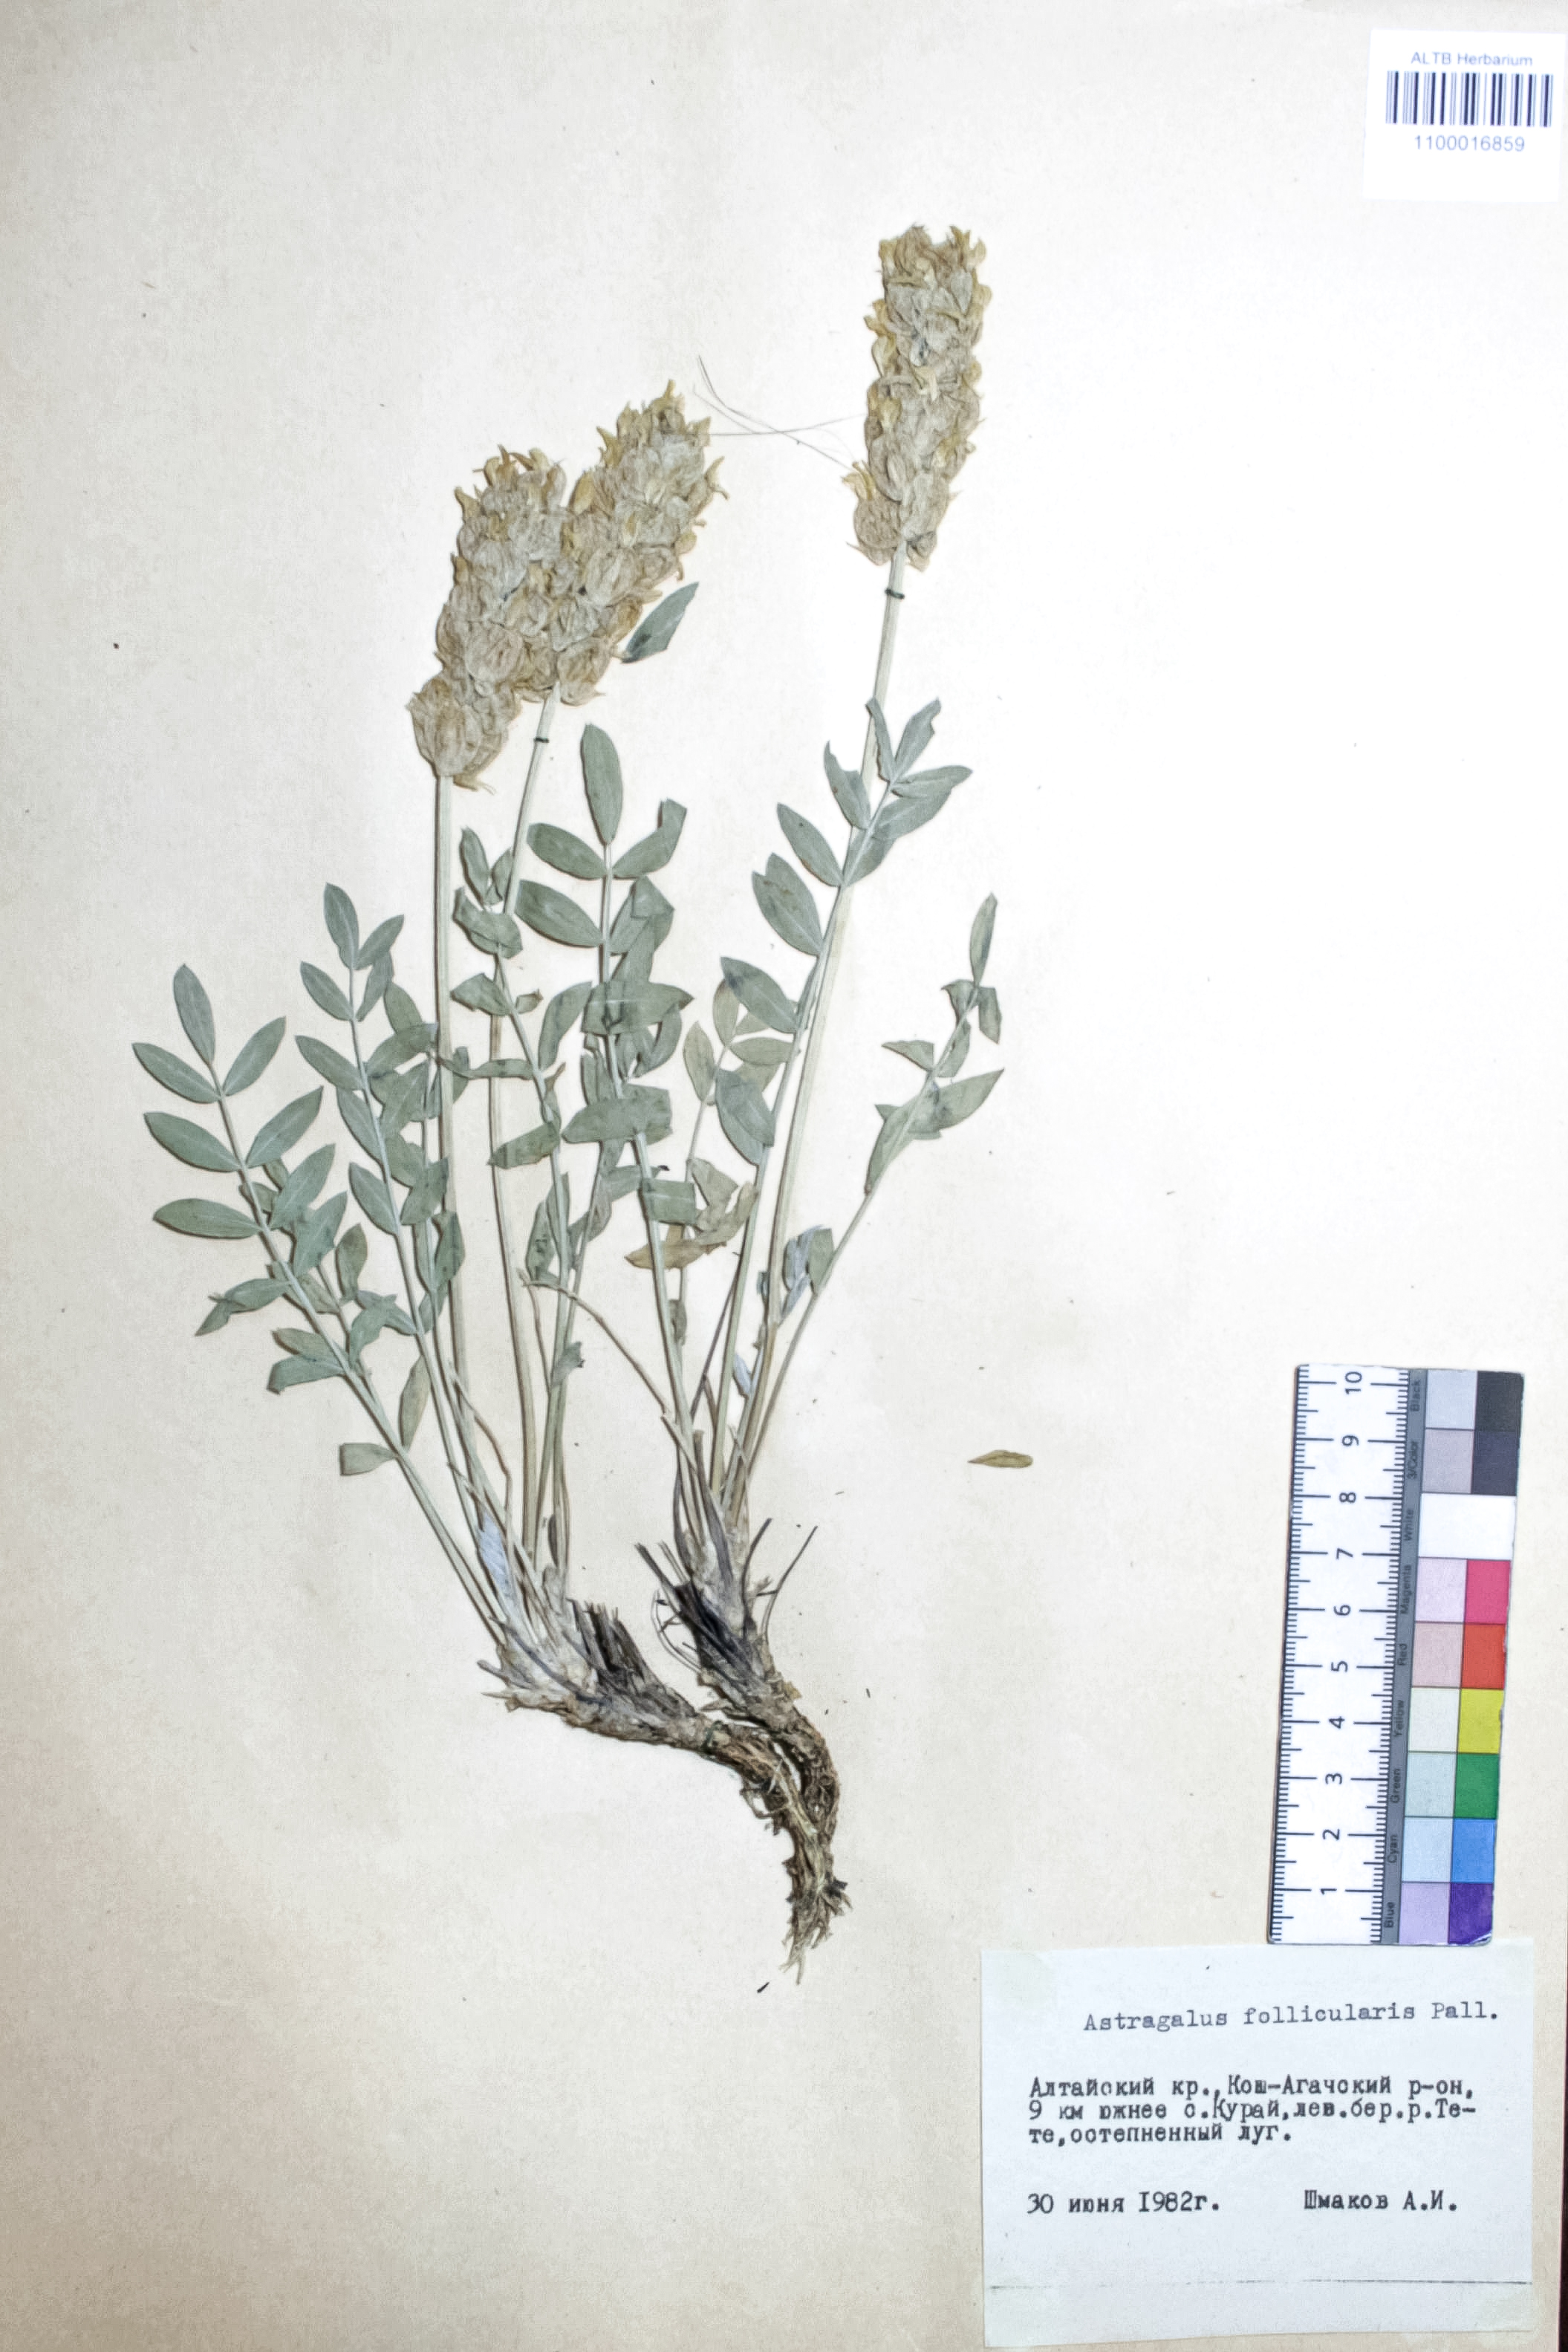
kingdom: Plantae
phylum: Tracheophyta
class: Magnoliopsida
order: Fabales
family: Fabaceae
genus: Astragalus
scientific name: Astragalus follicularis
